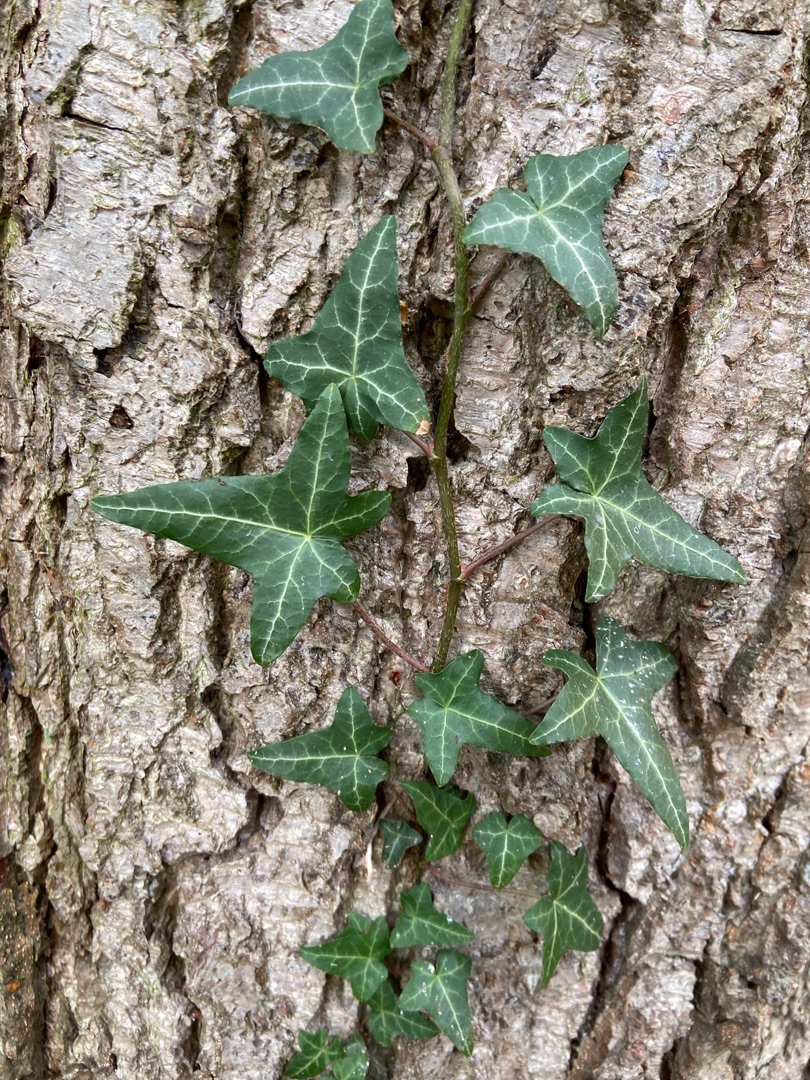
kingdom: Plantae
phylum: Tracheophyta
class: Magnoliopsida
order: Apiales
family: Araliaceae
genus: Hedera
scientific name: Hedera helix
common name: Vedbend
